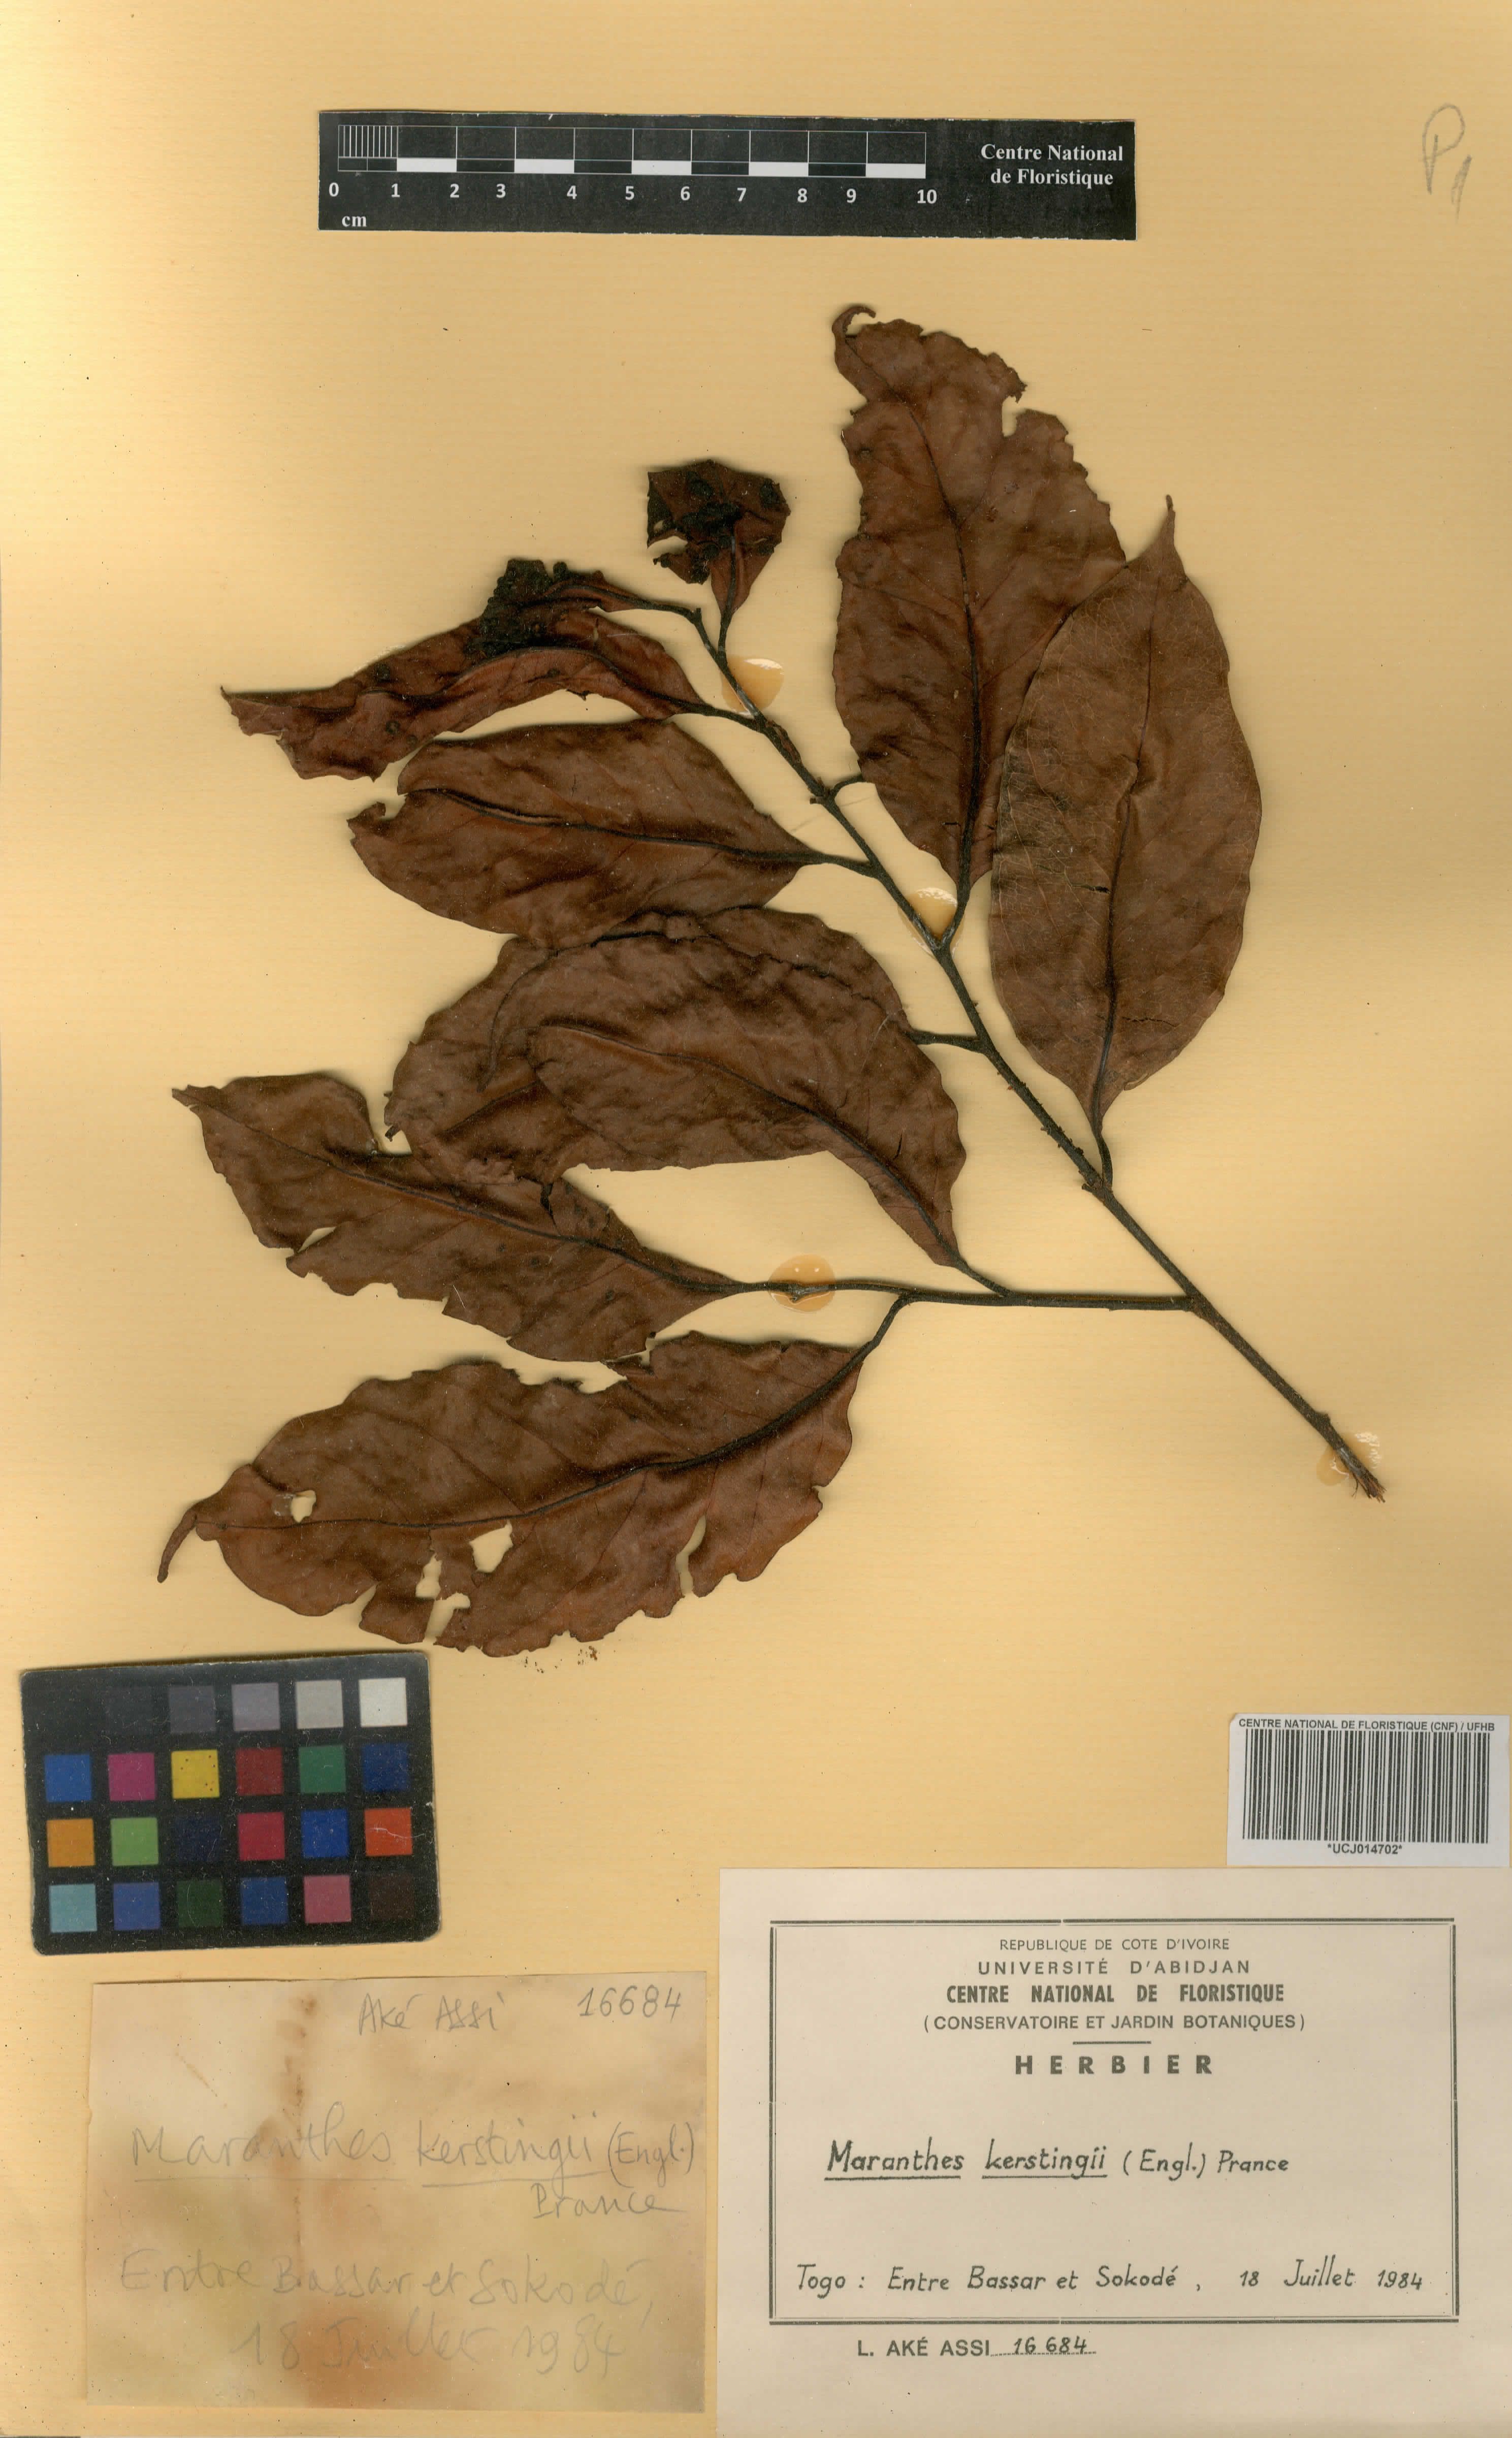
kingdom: Plantae
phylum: Tracheophyta
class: Magnoliopsida
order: Malpighiales
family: Chrysobalanaceae
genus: Maranthes
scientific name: Maranthes kerstingii
